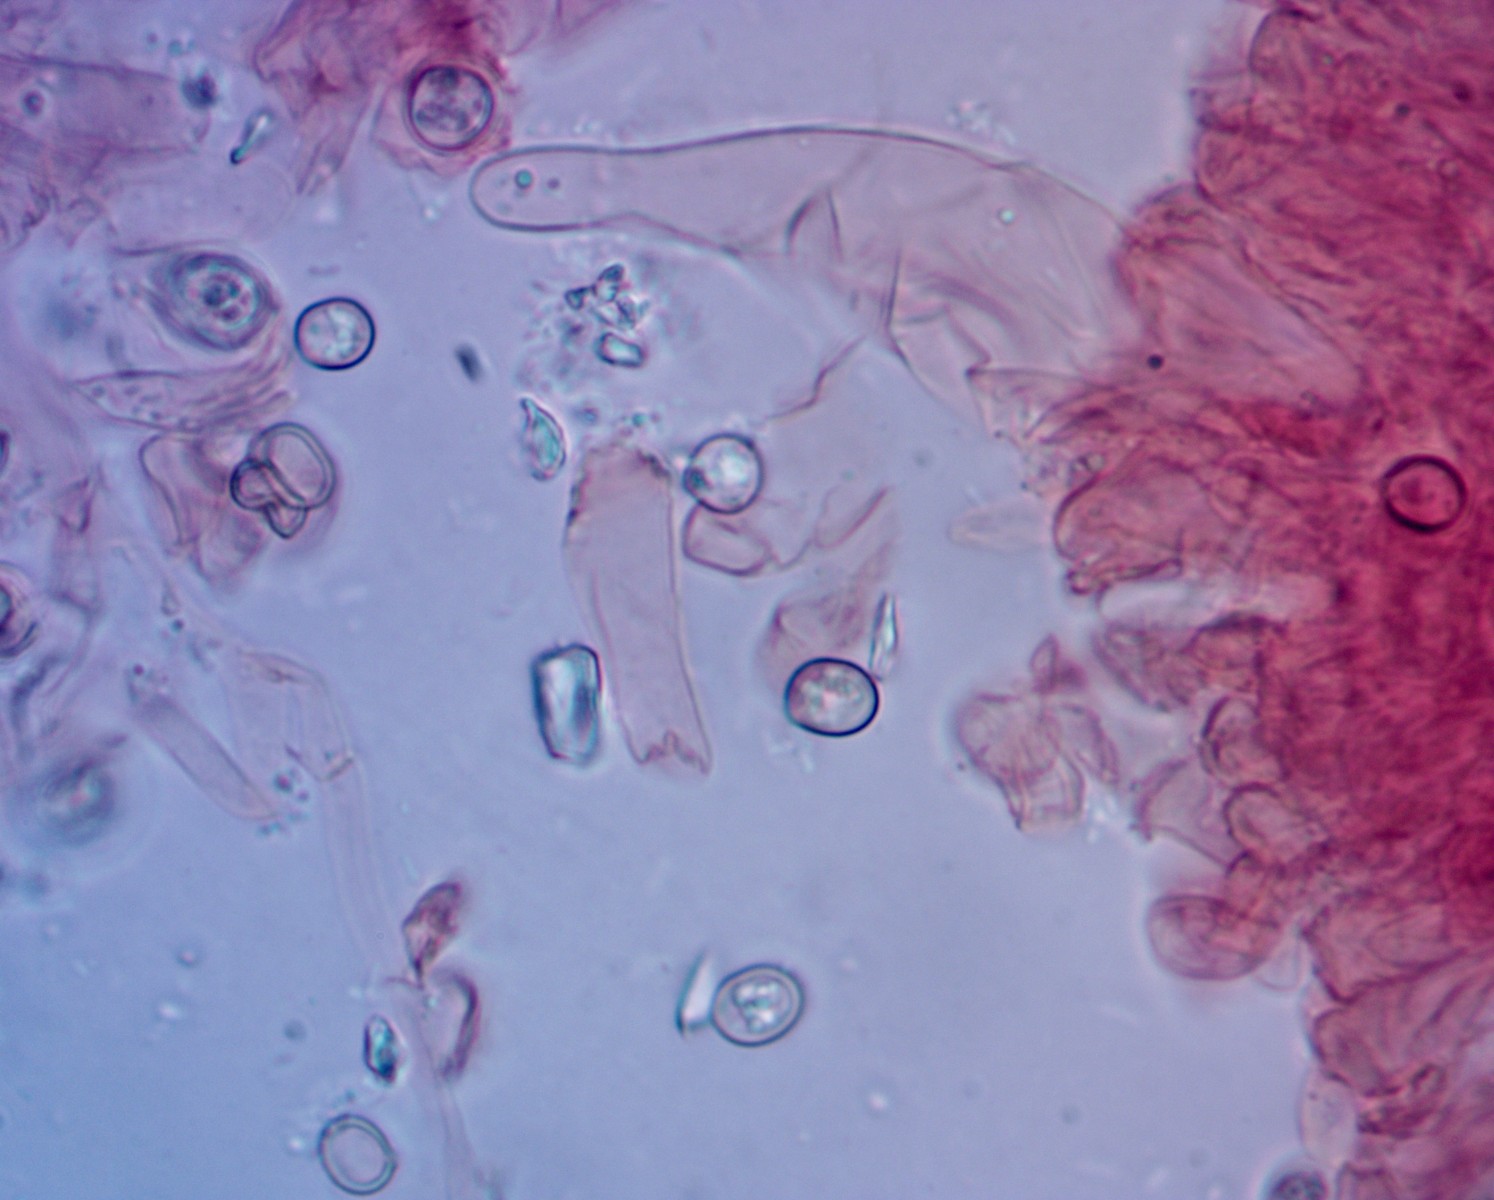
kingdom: Fungi
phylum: Basidiomycota
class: Agaricomycetes
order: Agaricales
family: Pluteaceae
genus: Pluteus
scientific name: Pluteus phlebophorus
